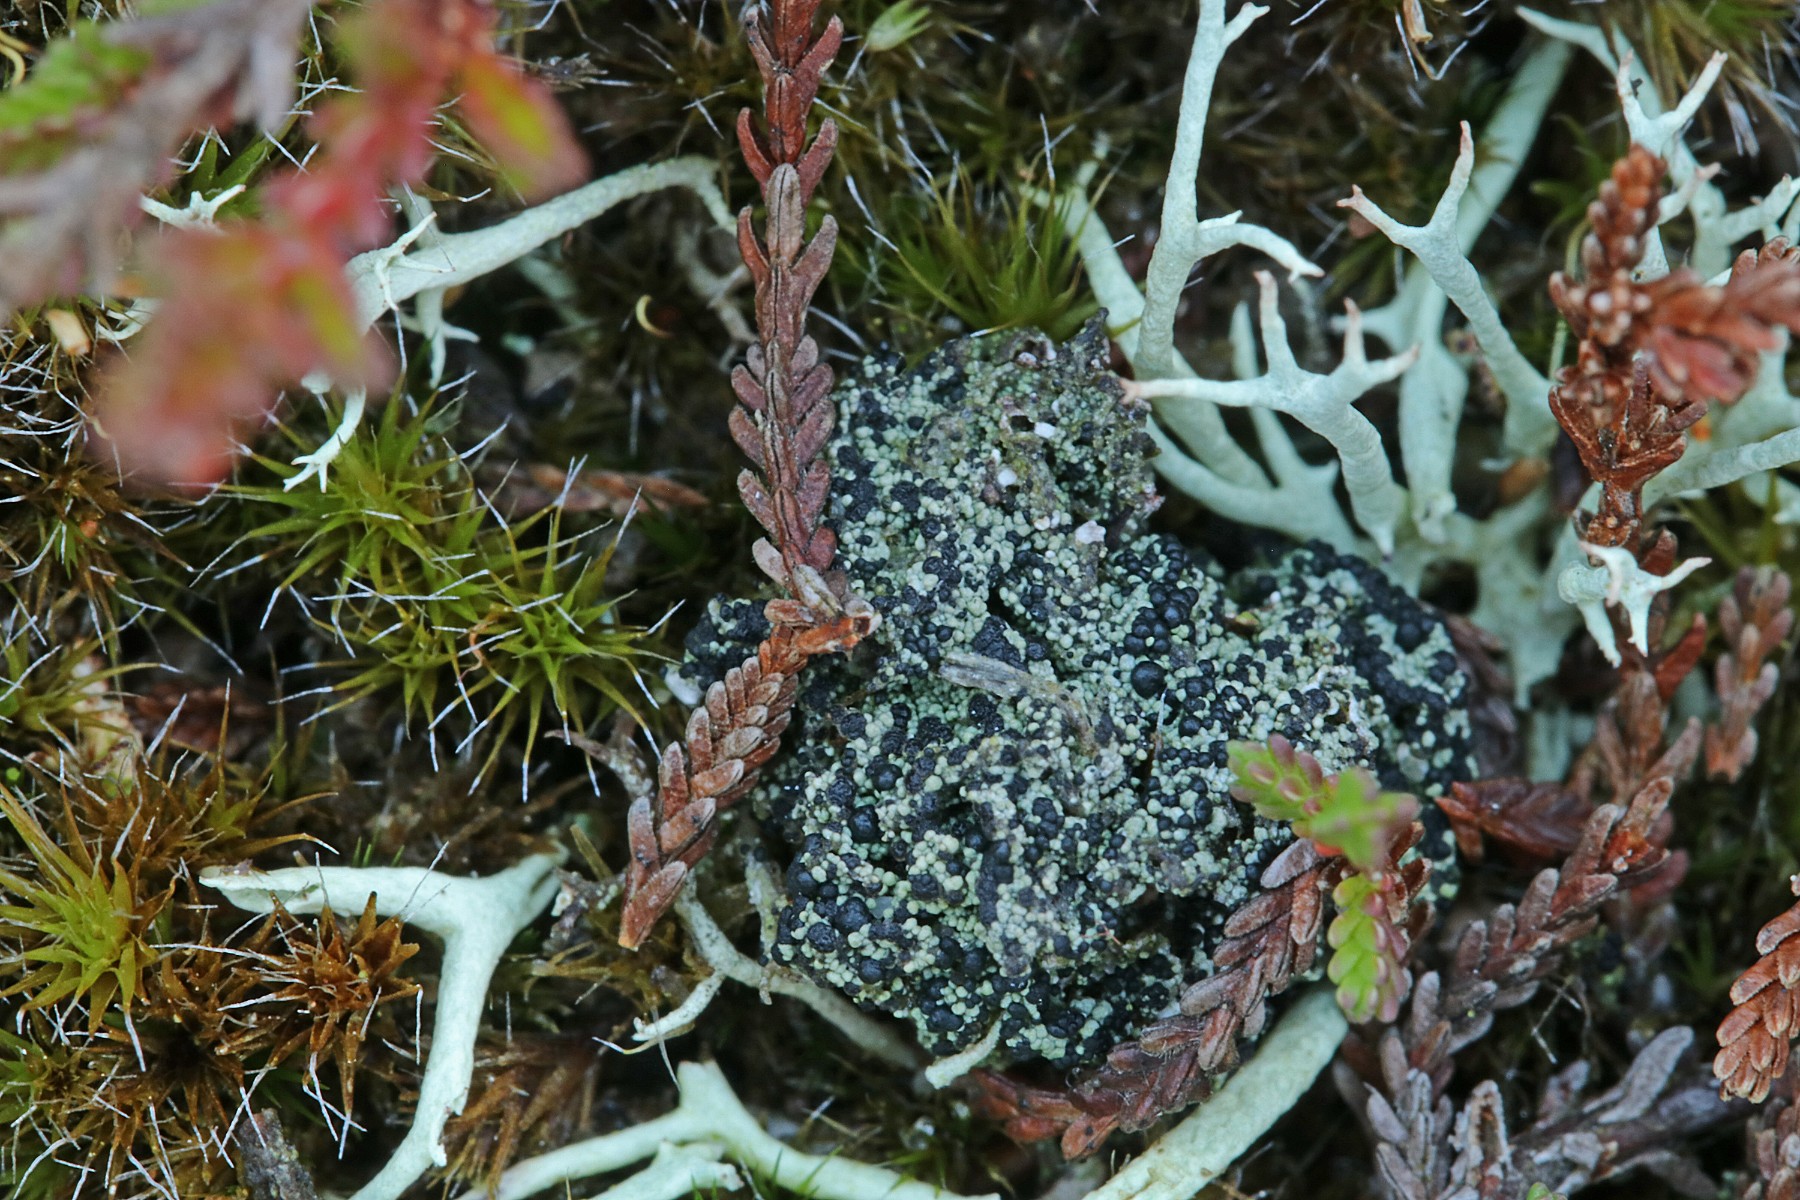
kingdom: Fungi
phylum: Ascomycota
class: Lecanoromycetes
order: Lecanorales
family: Byssolomataceae
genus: Micarea
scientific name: Micarea lignaria
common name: tørve-knaplav
